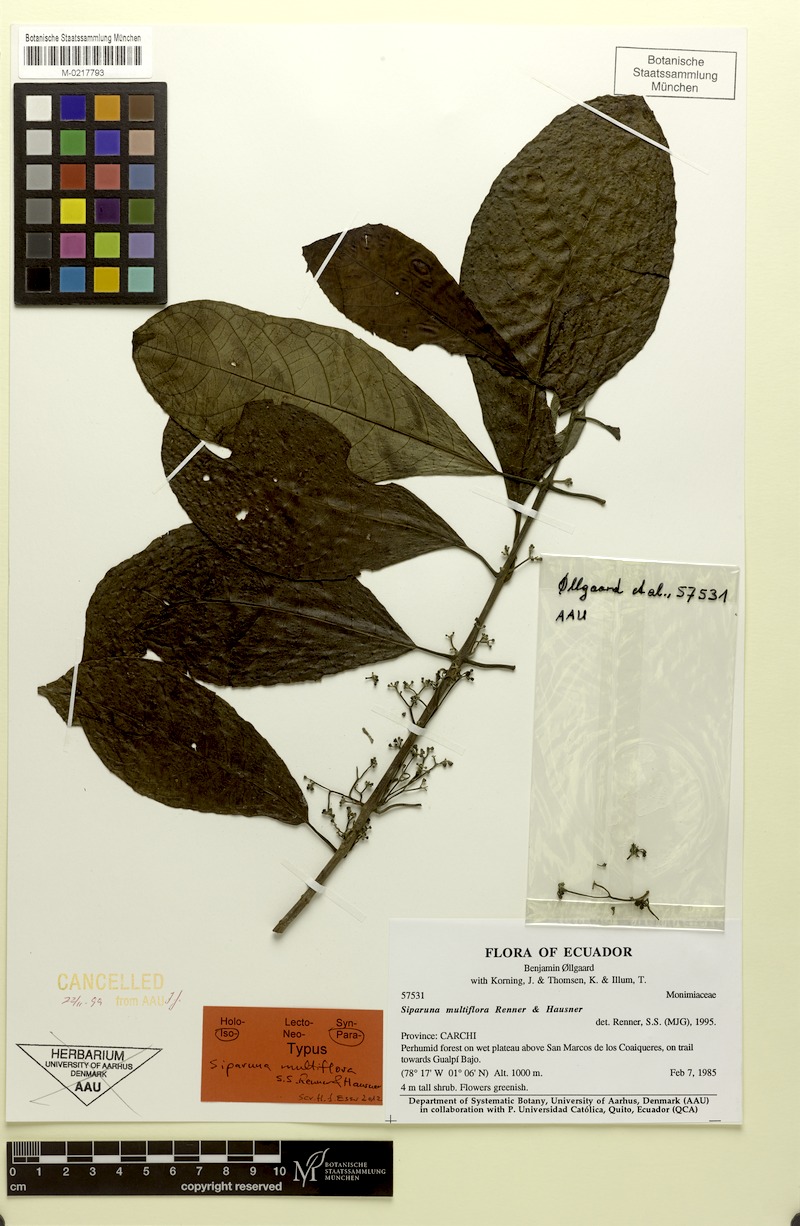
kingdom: Plantae
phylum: Tracheophyta
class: Magnoliopsida
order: Laurales
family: Siparunaceae
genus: Siparuna
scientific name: Siparuna multiflora
